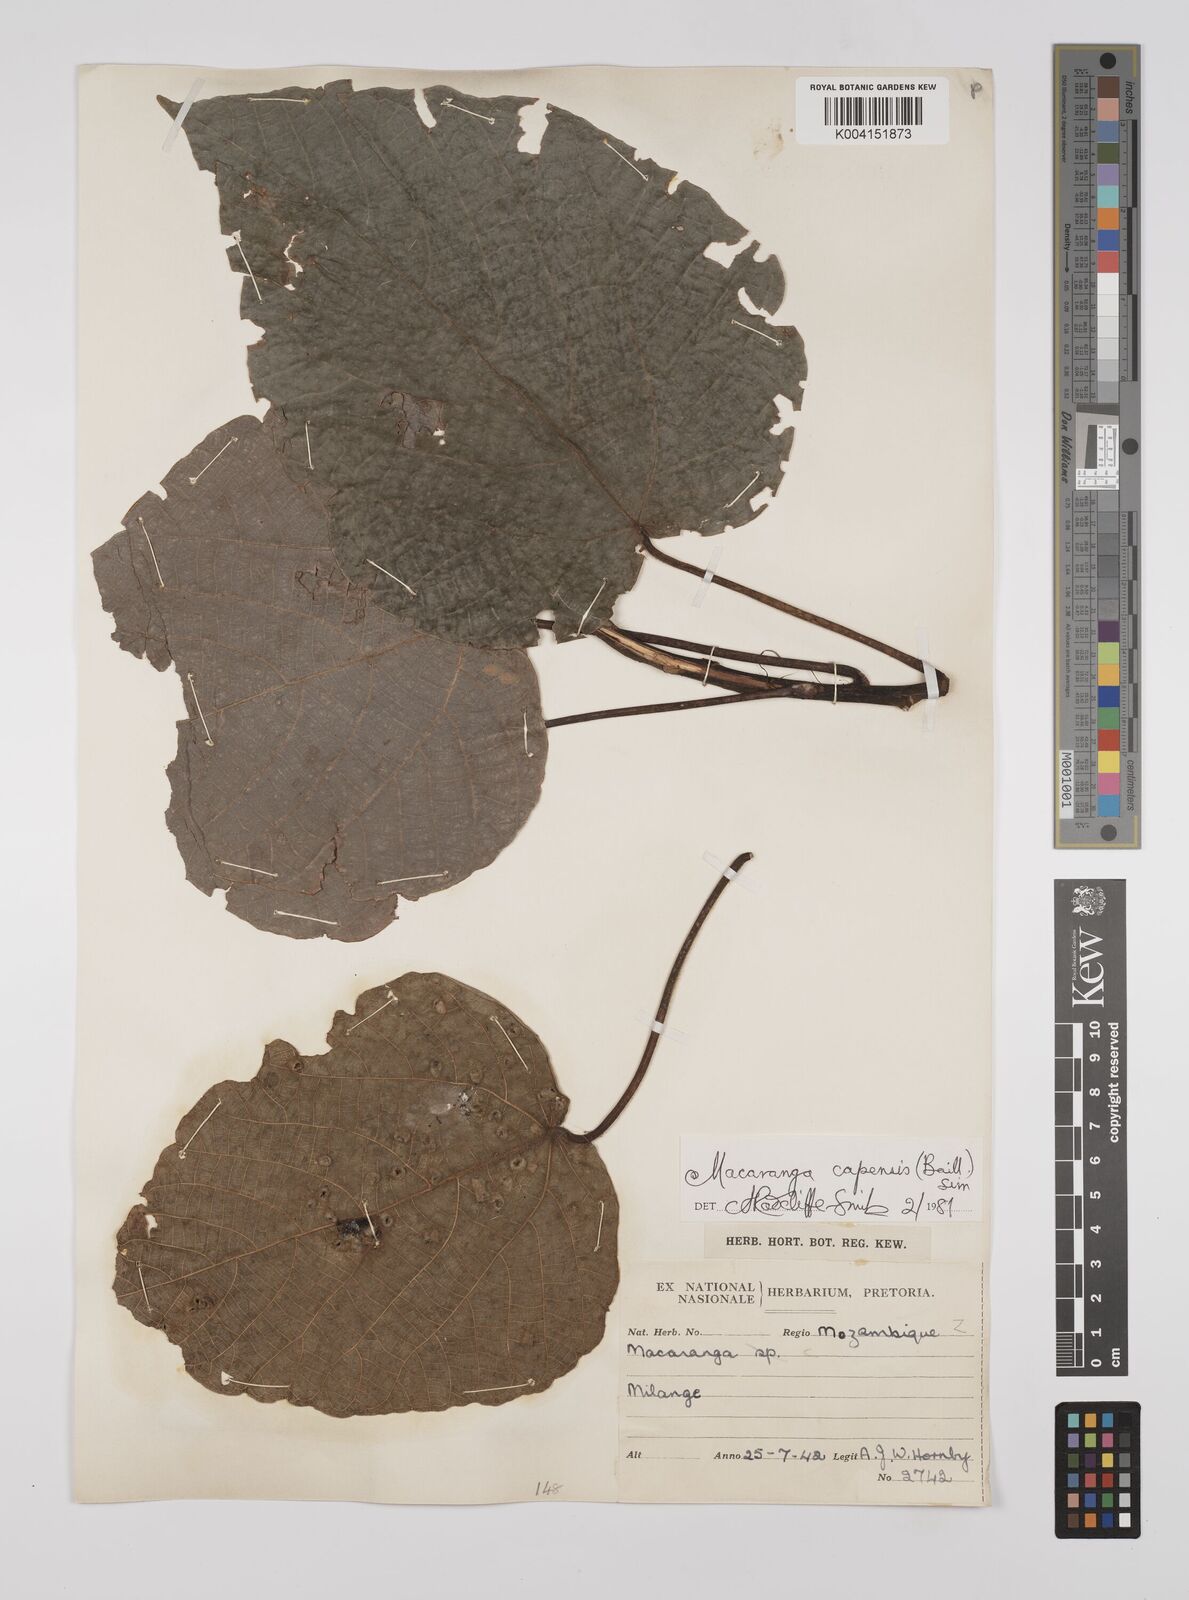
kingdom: Plantae
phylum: Tracheophyta
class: Magnoliopsida
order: Malpighiales
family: Euphorbiaceae
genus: Macaranga
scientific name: Macaranga capensis
